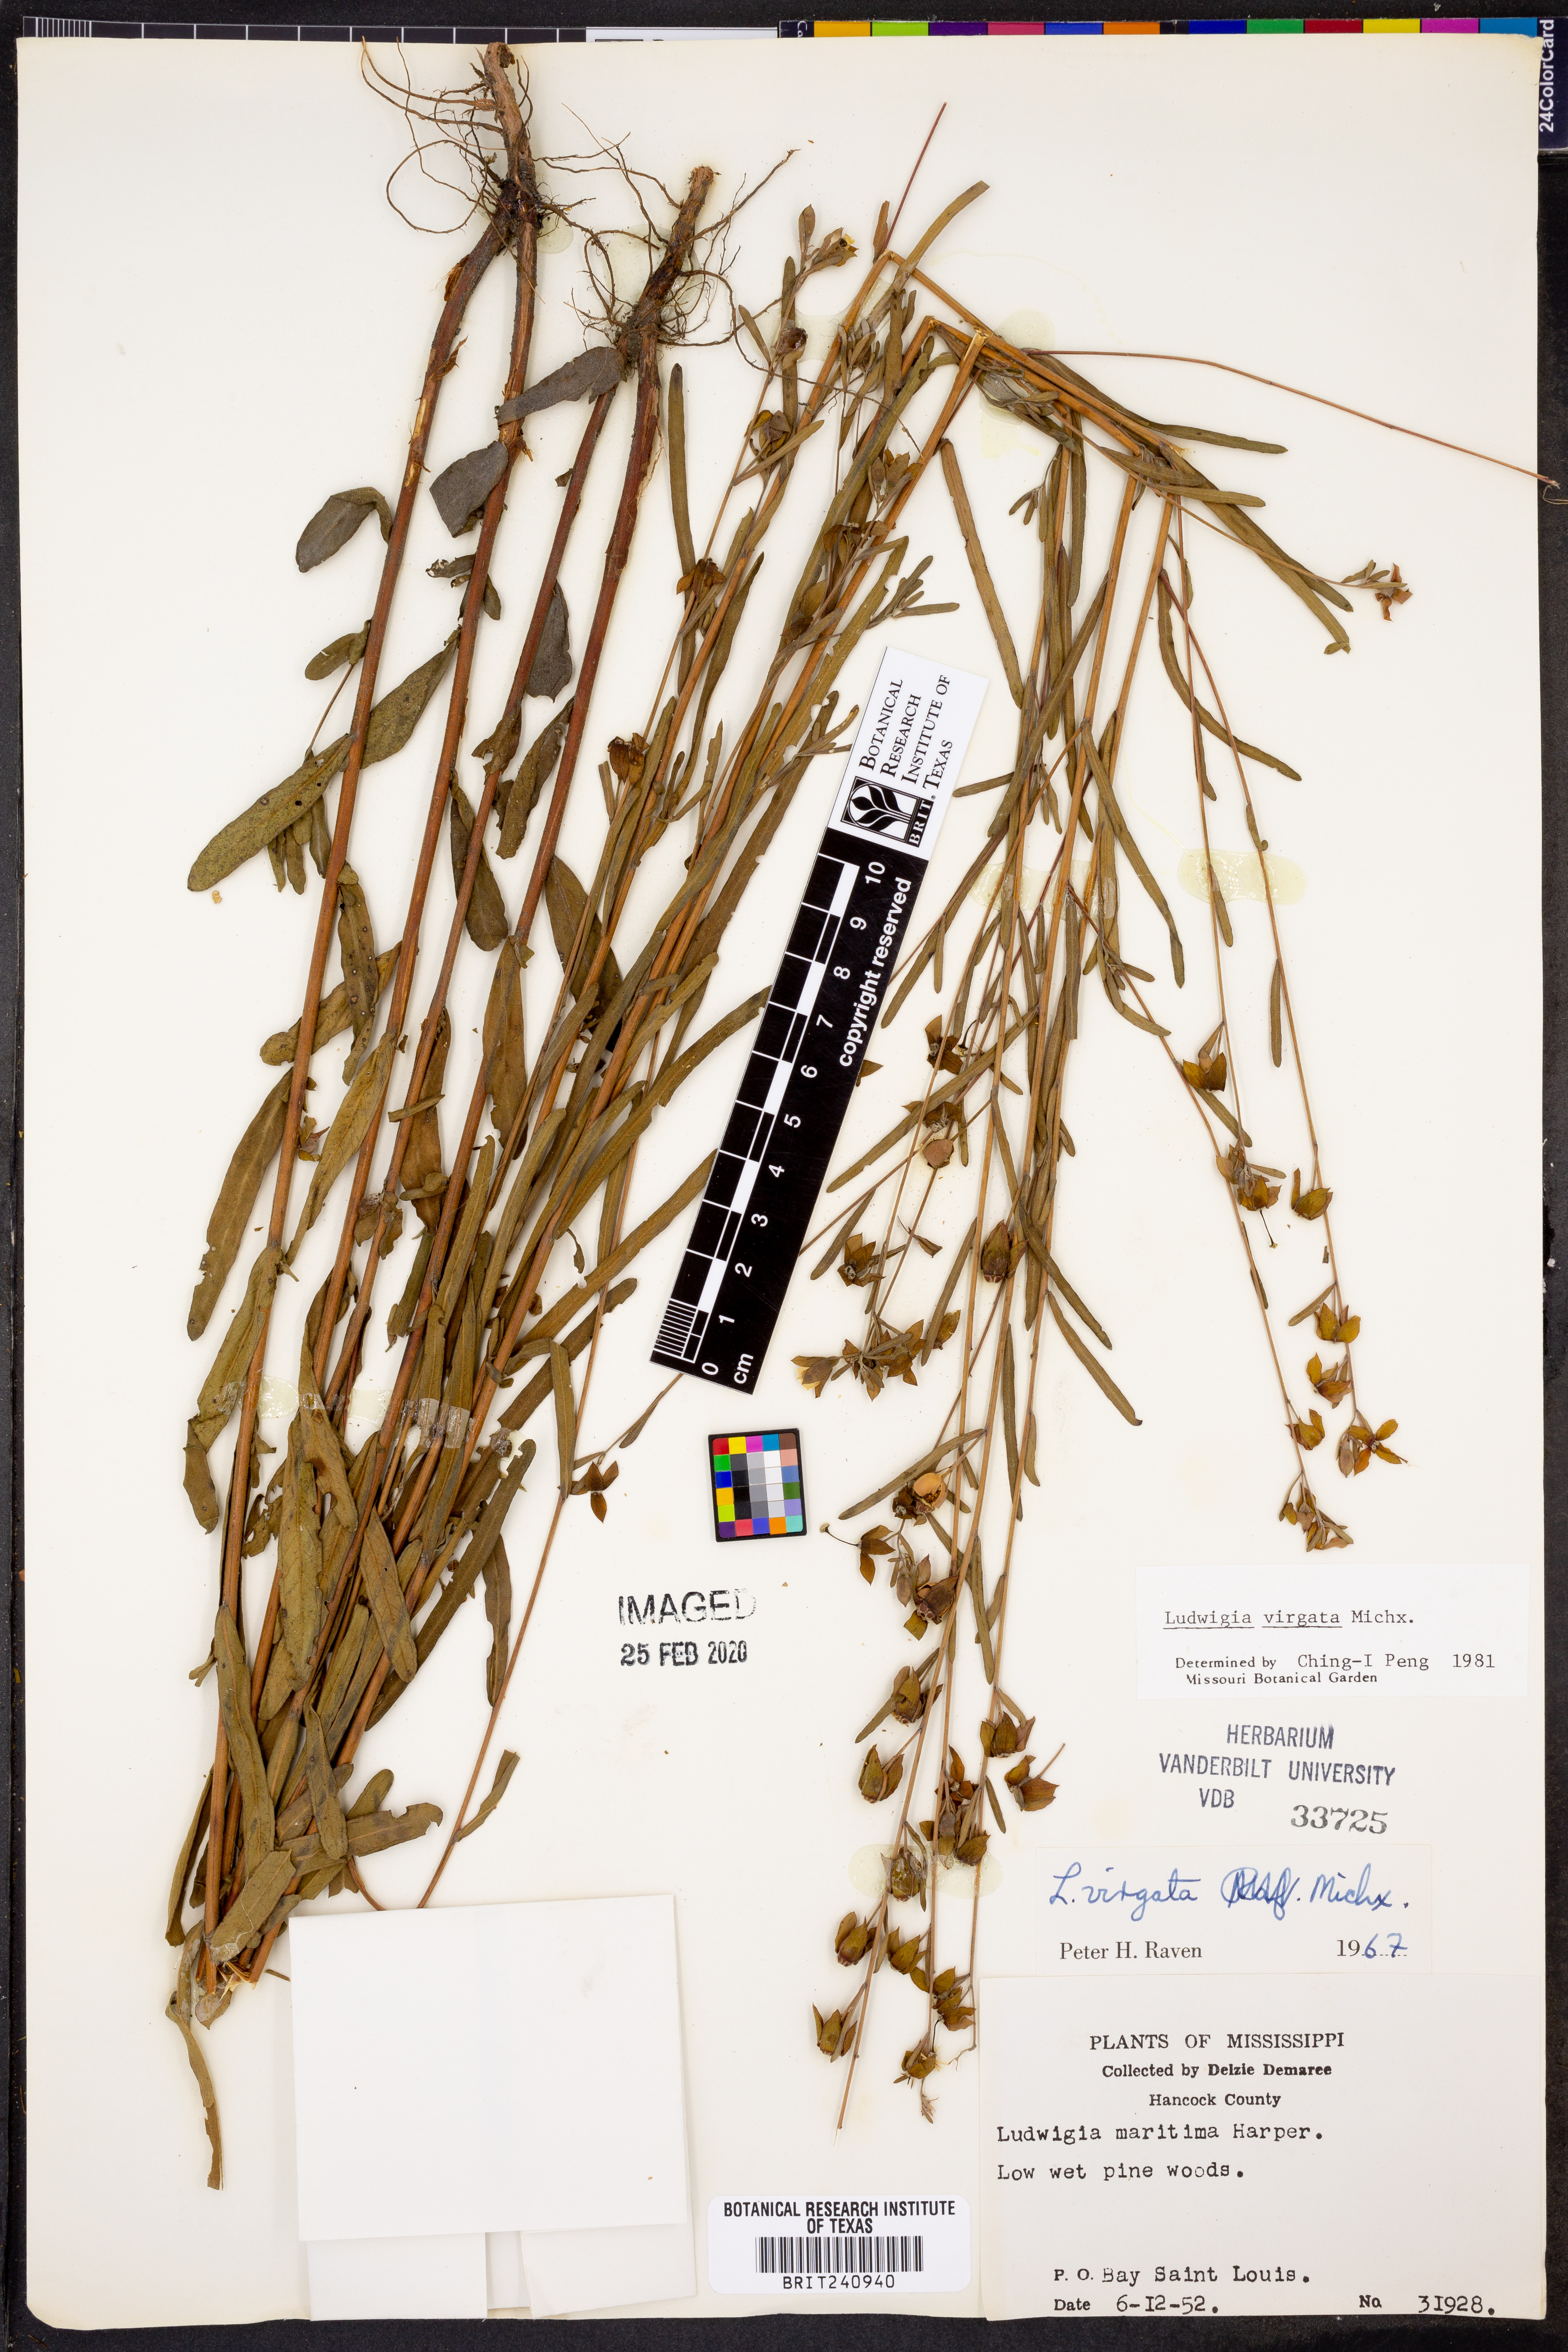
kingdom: Plantae
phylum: Tracheophyta
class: Magnoliopsida
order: Myrtales
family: Onagraceae
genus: Ludwigia
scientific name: Ludwigia virgata
